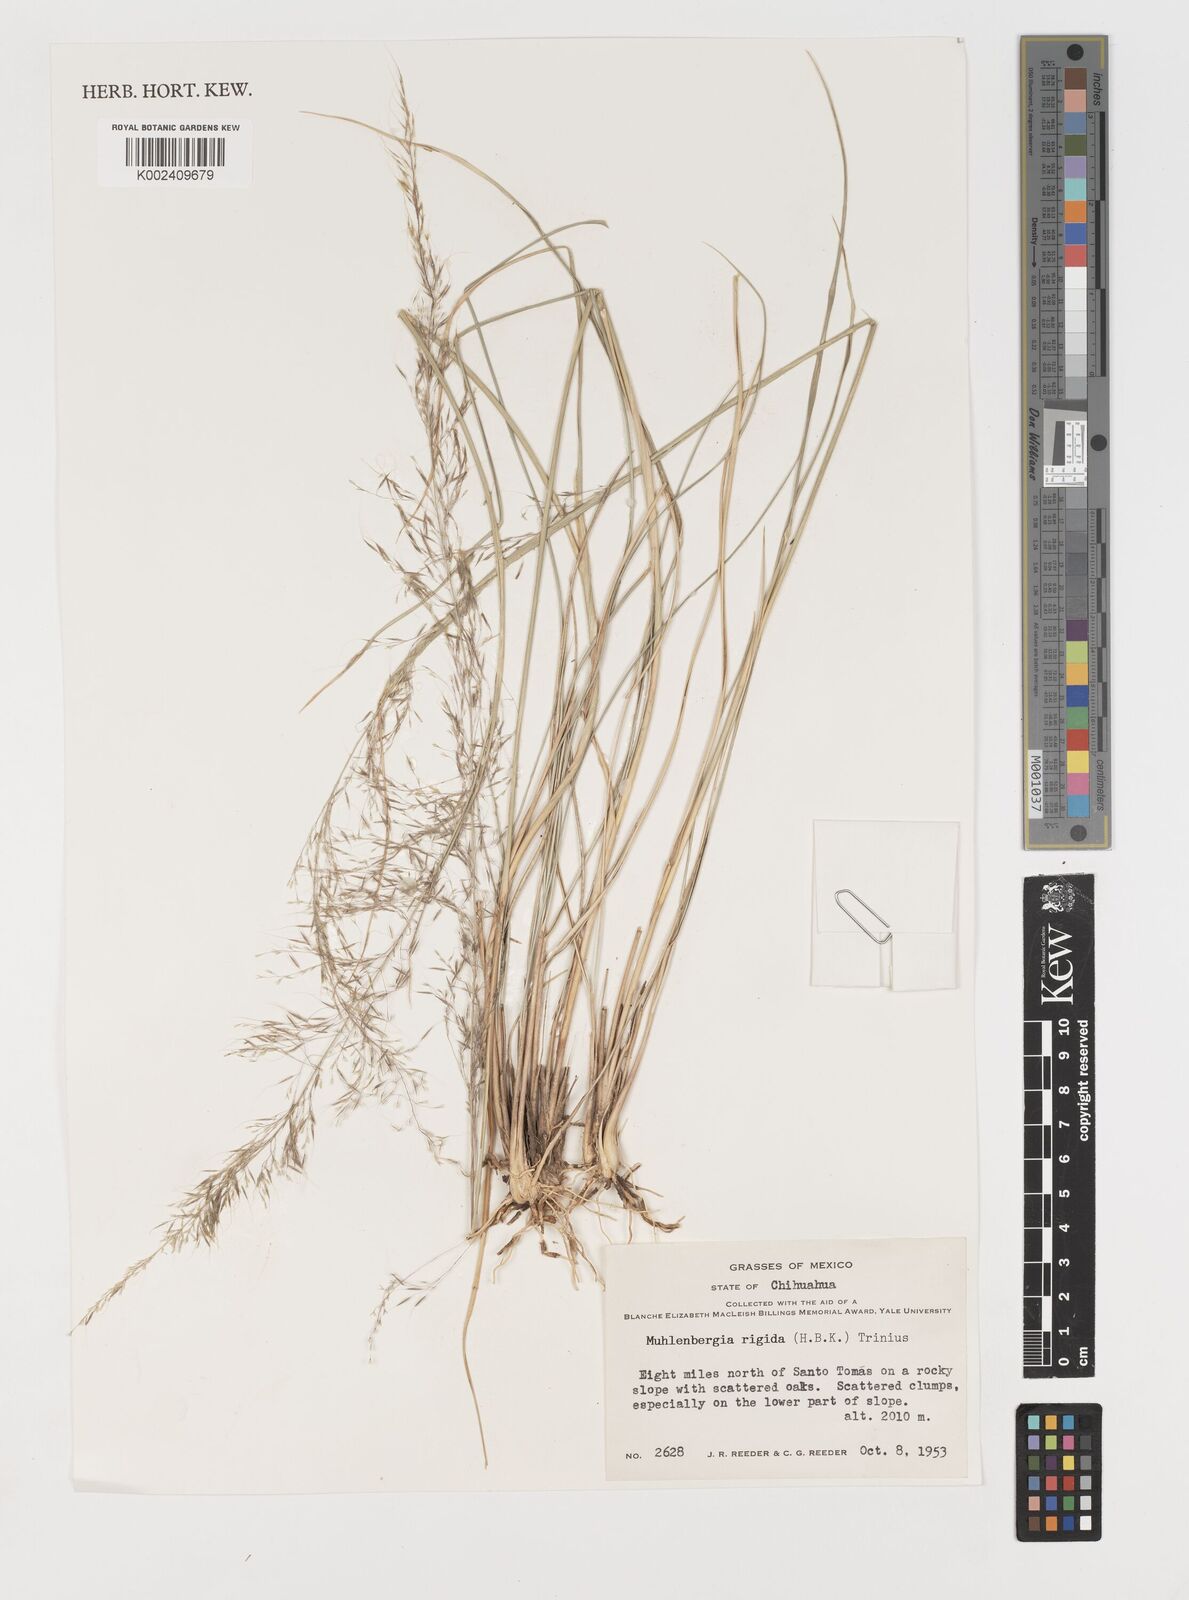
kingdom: Plantae
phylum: Tracheophyta
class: Liliopsida
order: Poales
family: Poaceae
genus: Muhlenbergia
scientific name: Muhlenbergia rigida
